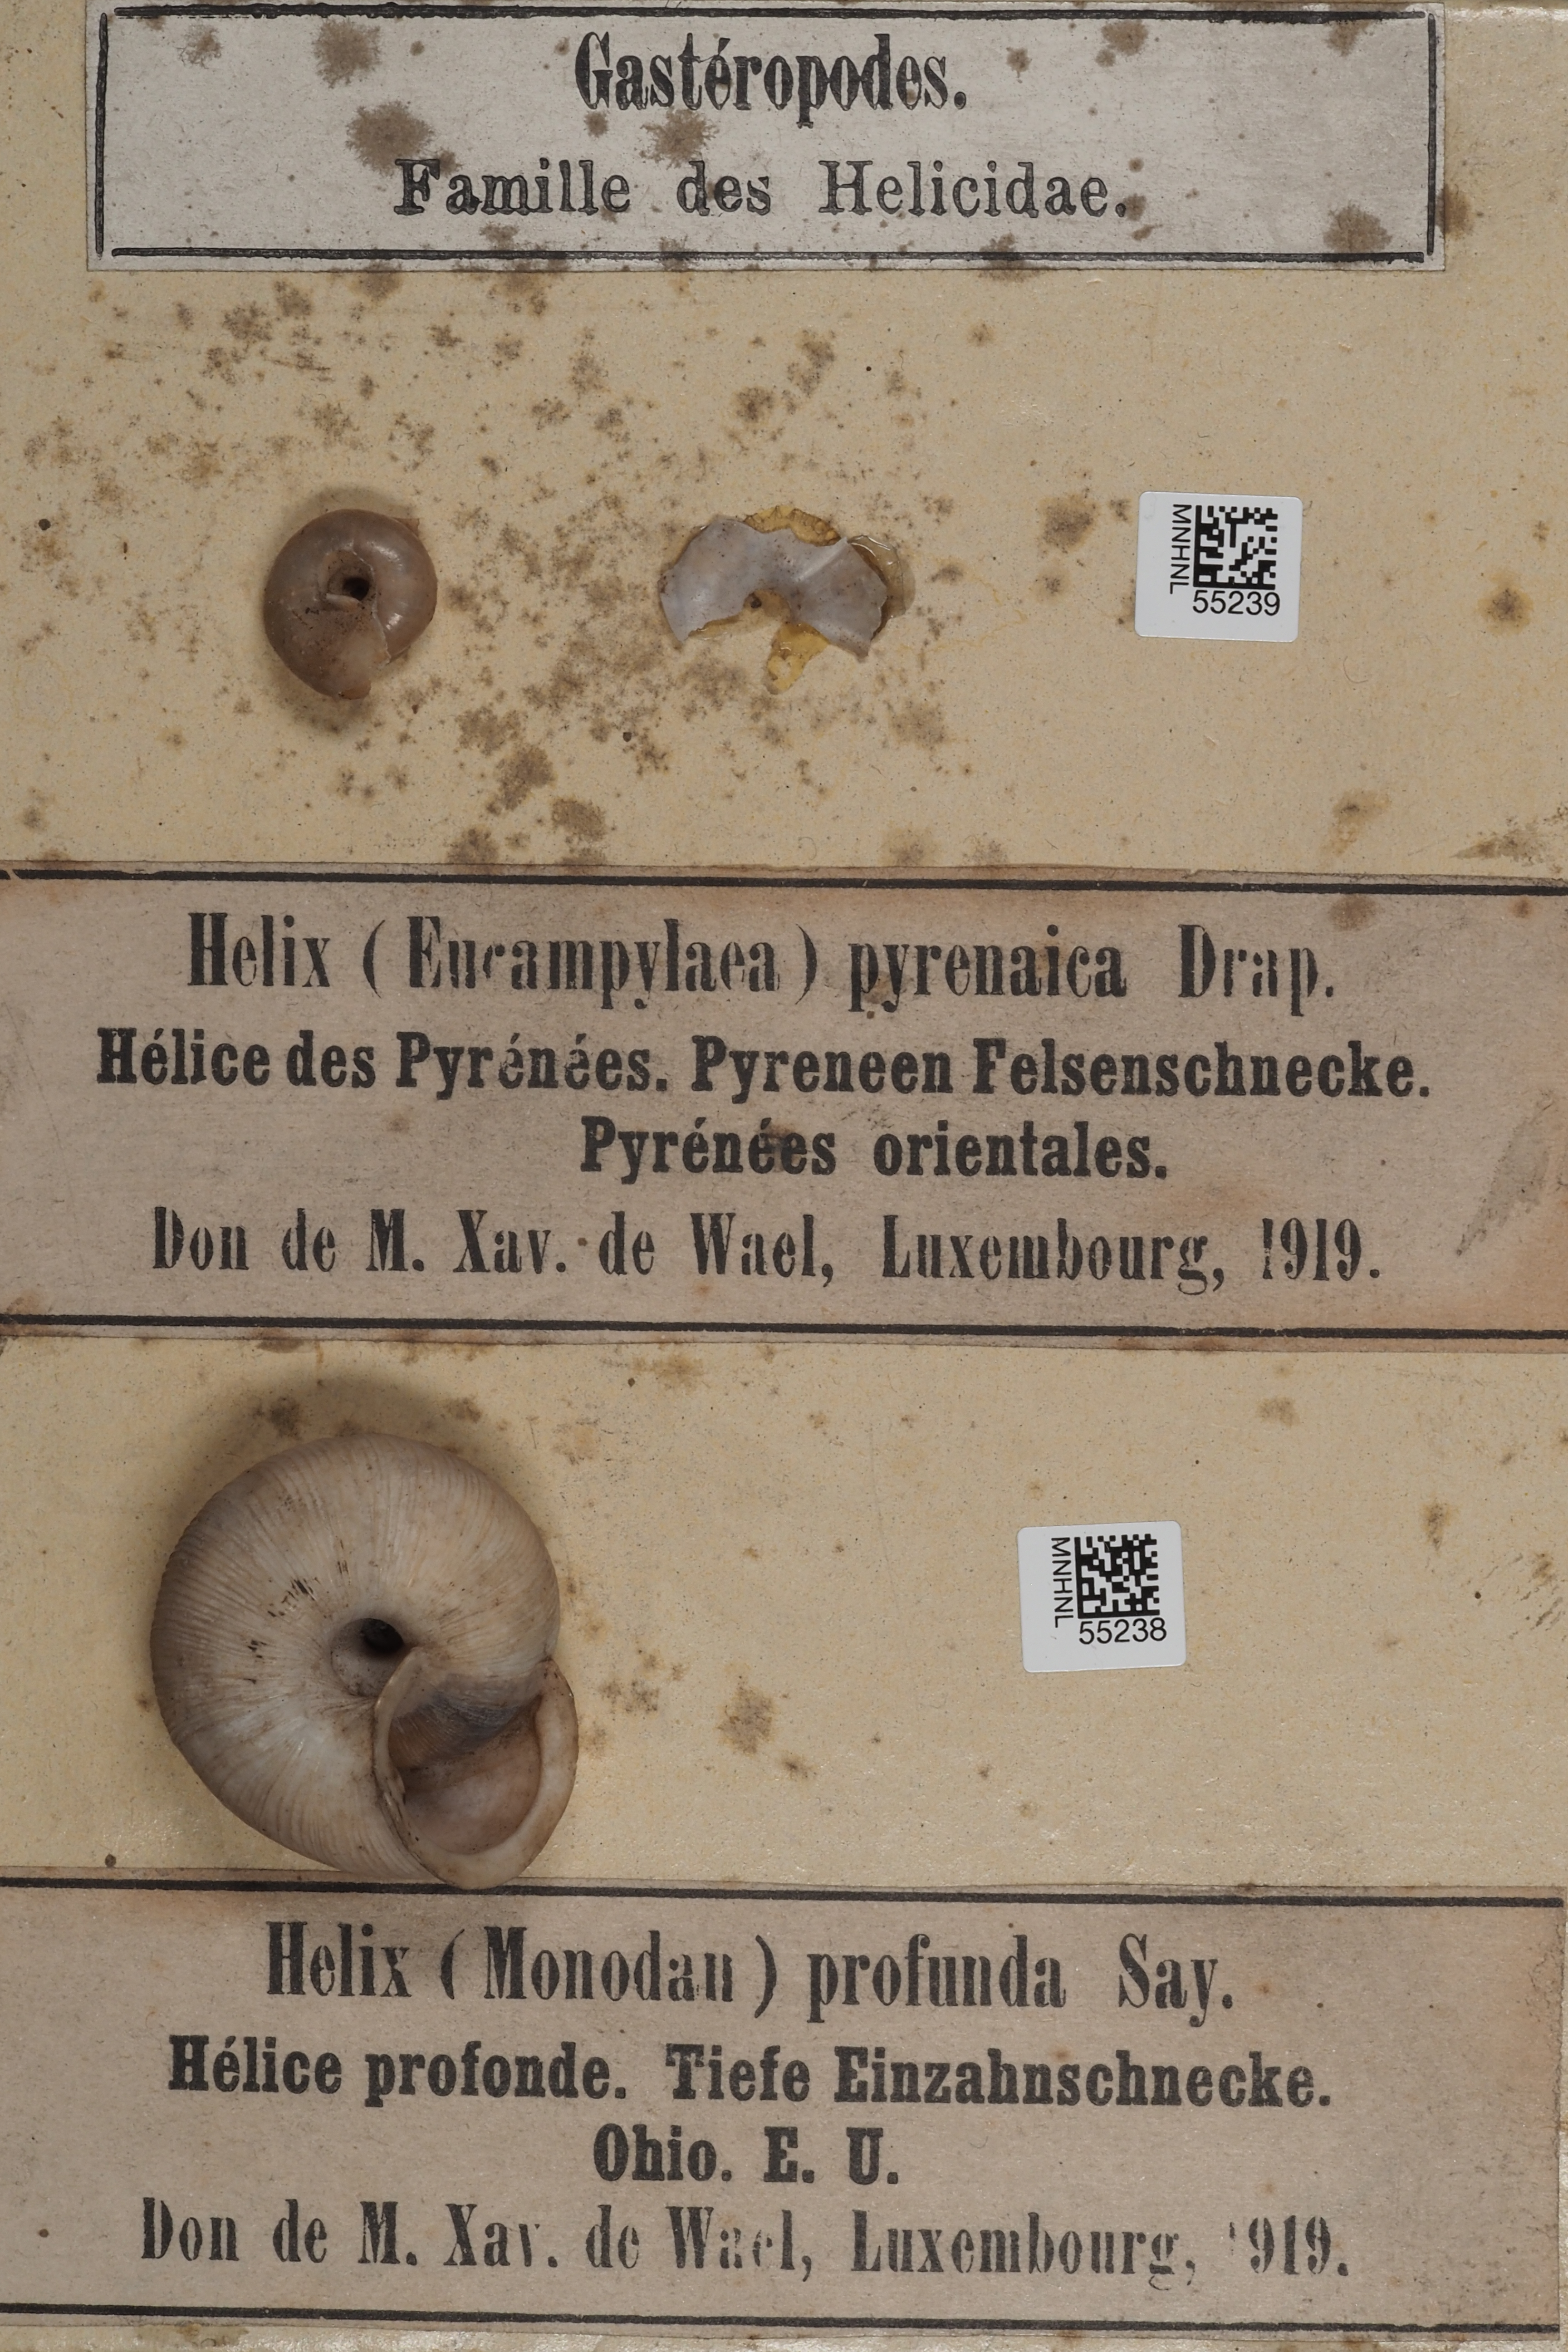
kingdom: Animalia
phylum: Mollusca
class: Gastropoda
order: Stylommatophora
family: Elonidae
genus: Norelona
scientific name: Norelona pyrenaica
